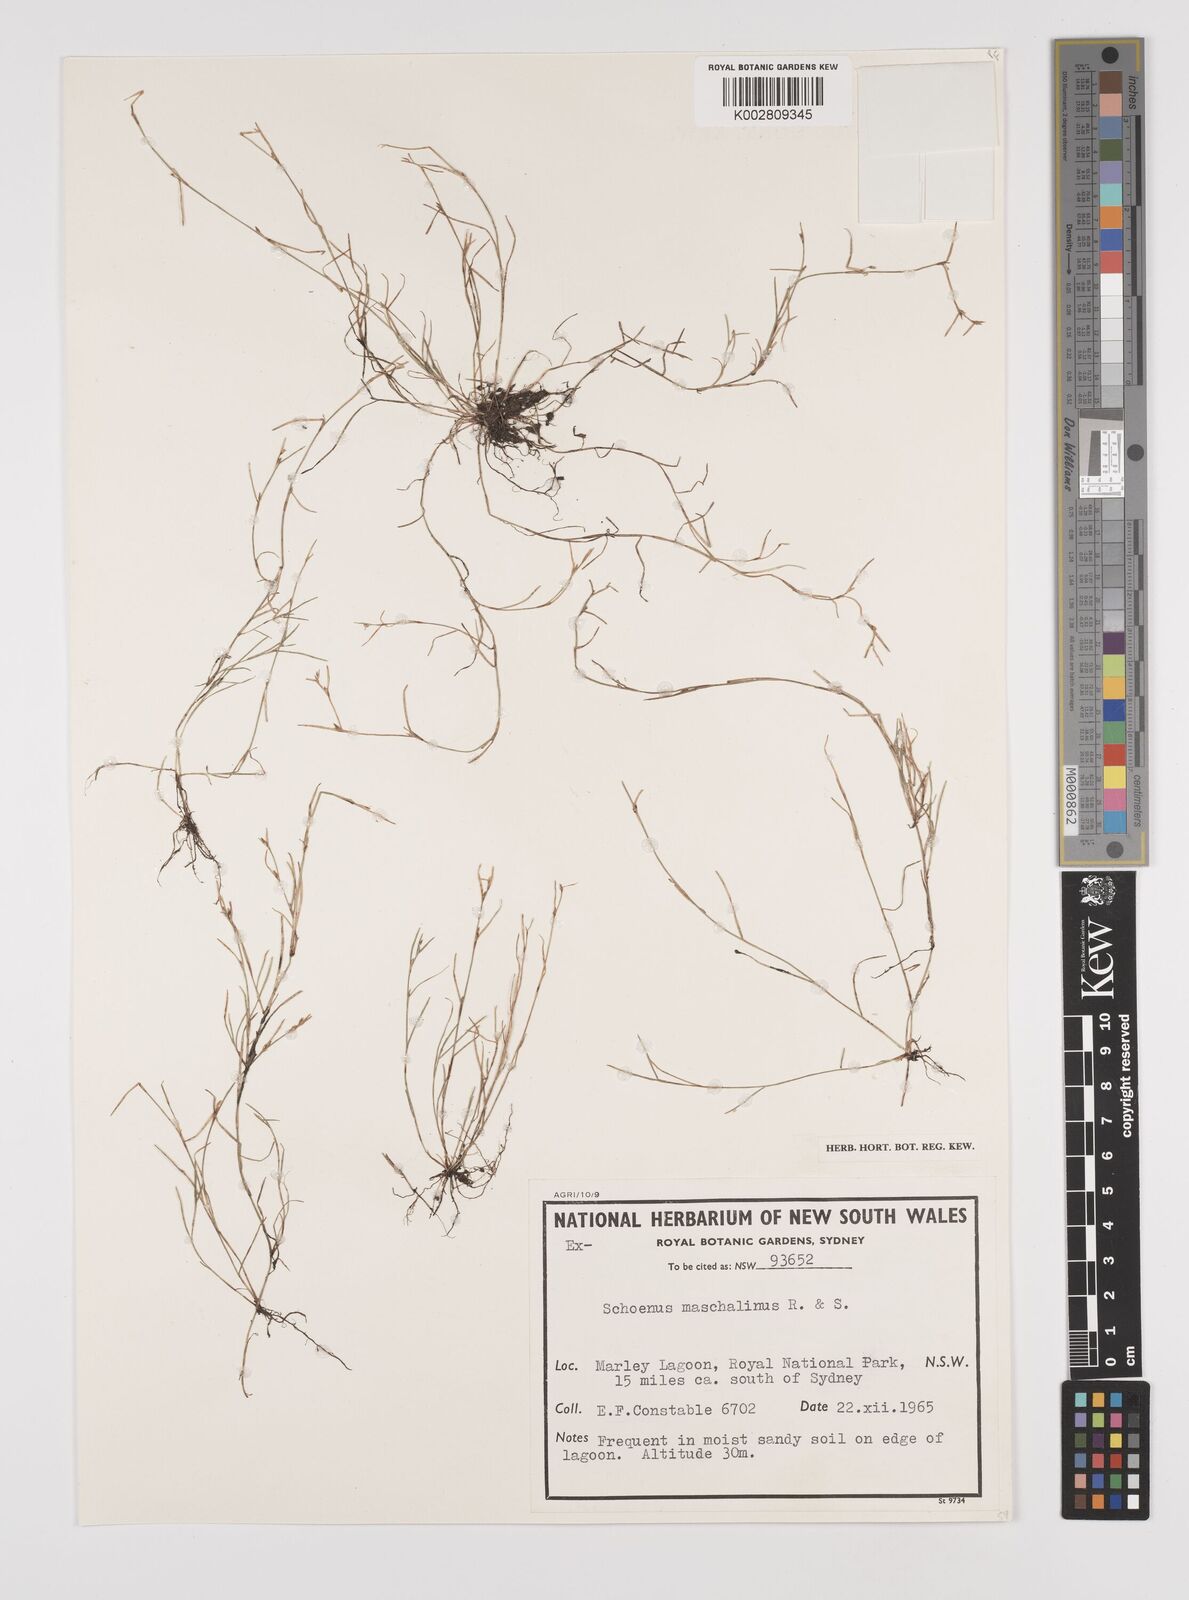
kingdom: Plantae
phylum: Tracheophyta
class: Liliopsida
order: Poales
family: Cyperaceae
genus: Schoenus
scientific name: Schoenus maschalinus
